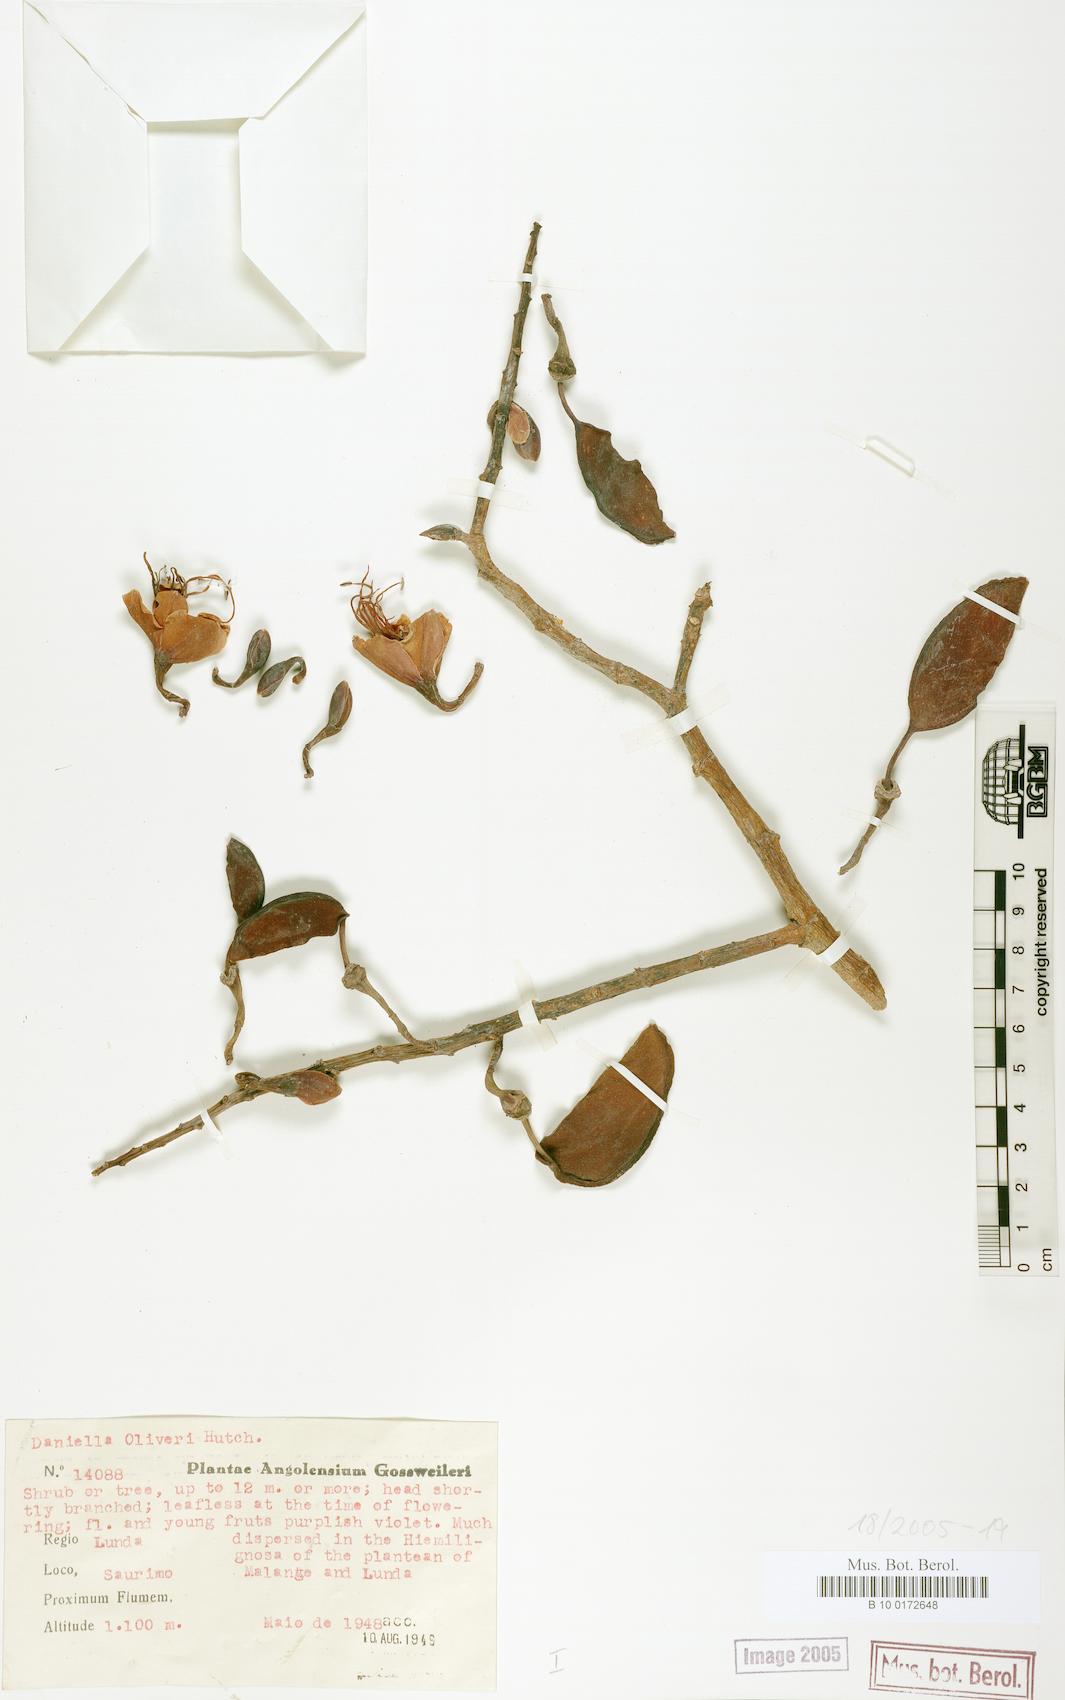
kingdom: Plantae
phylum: Tracheophyta
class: Magnoliopsida
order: Fabales
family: Fabaceae
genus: Daniellia
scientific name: Daniellia alsteeniana
